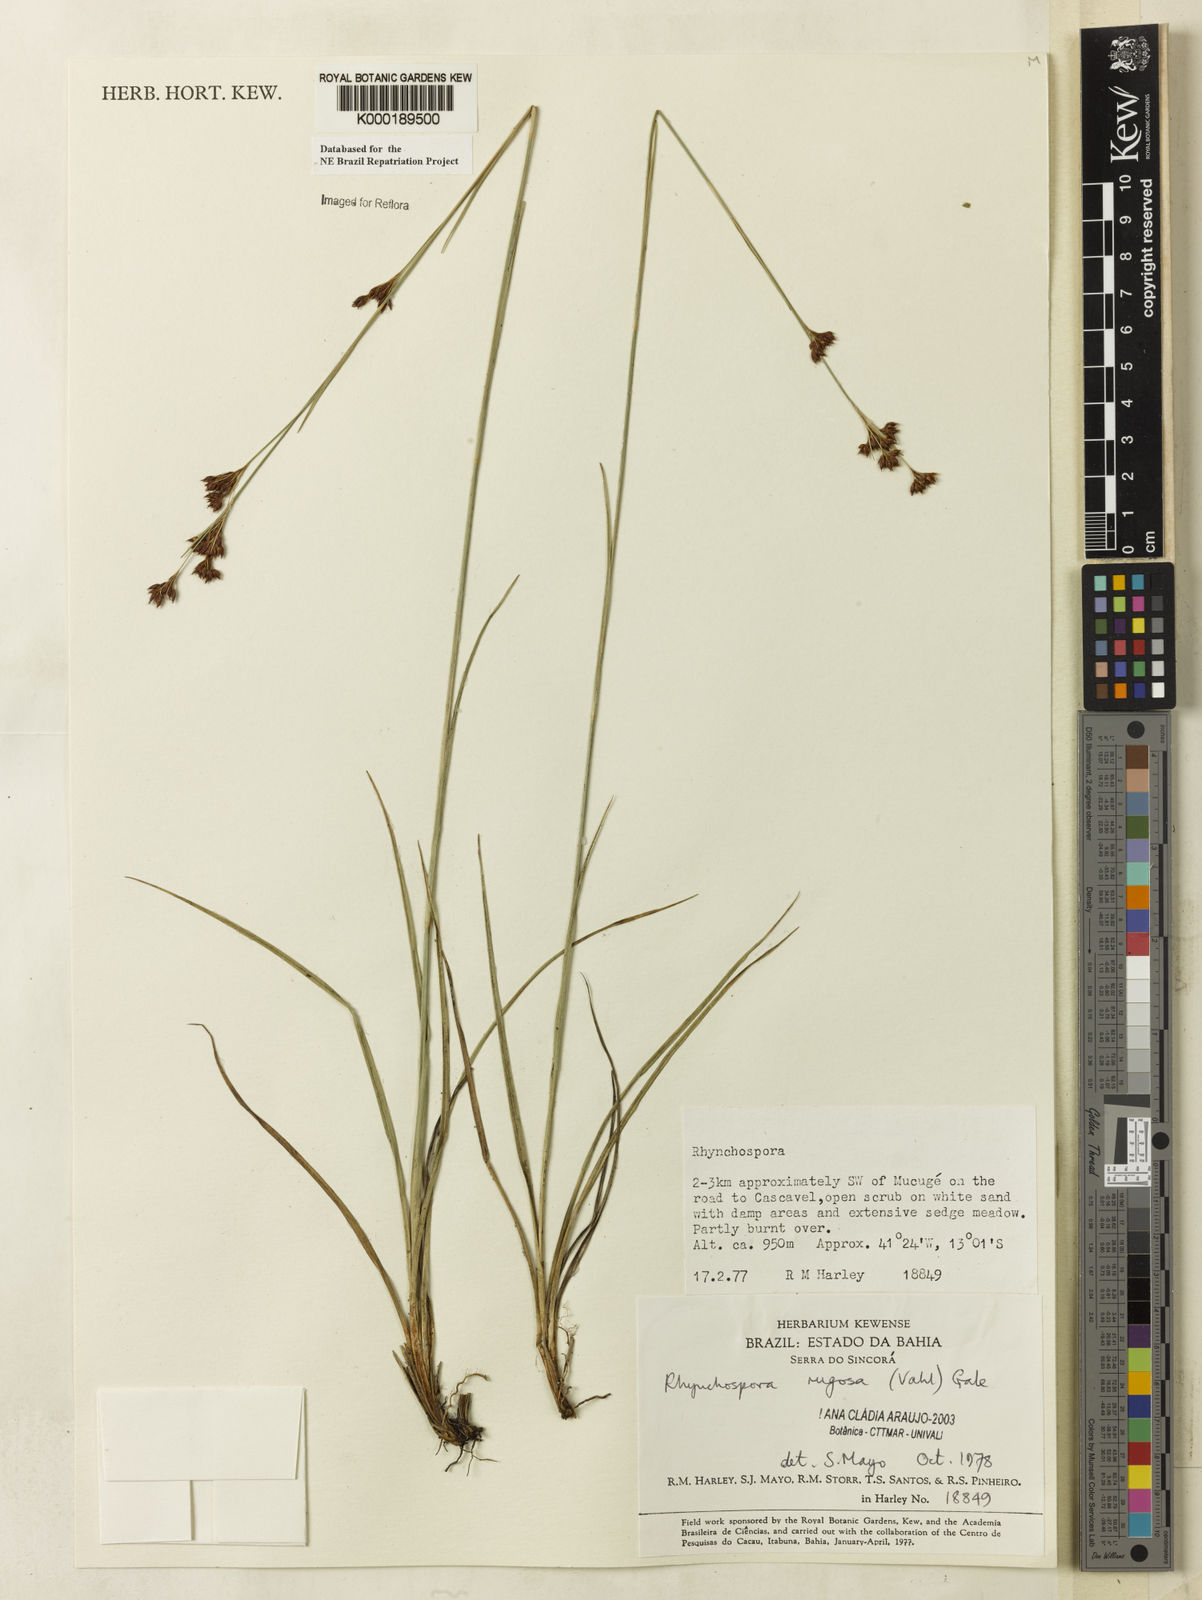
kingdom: Plantae
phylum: Tracheophyta
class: Liliopsida
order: Poales
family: Cyperaceae
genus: Rhynchospora
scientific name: Rhynchospora rugosa
